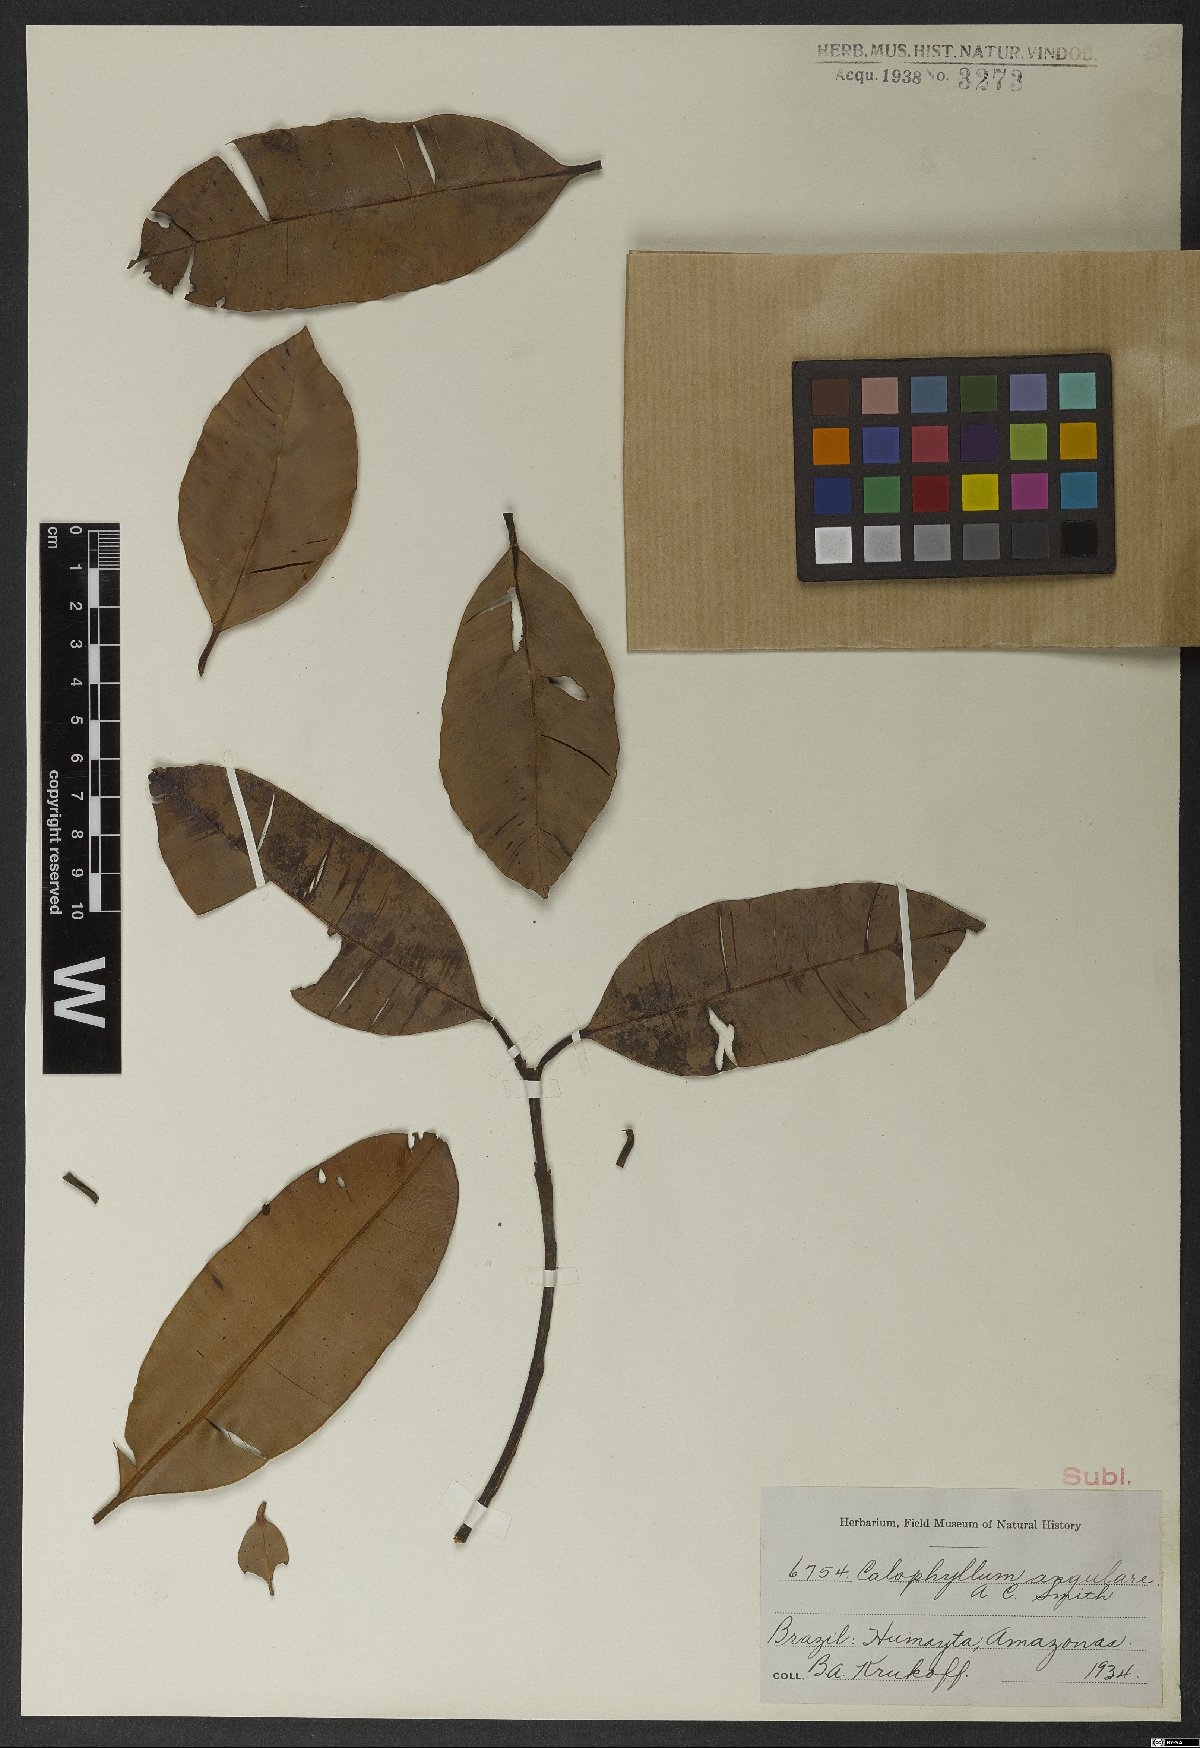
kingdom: Plantae
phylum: Tracheophyta
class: Magnoliopsida
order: Malpighiales
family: Calophyllaceae
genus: Calophyllum
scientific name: Calophyllum angulare
